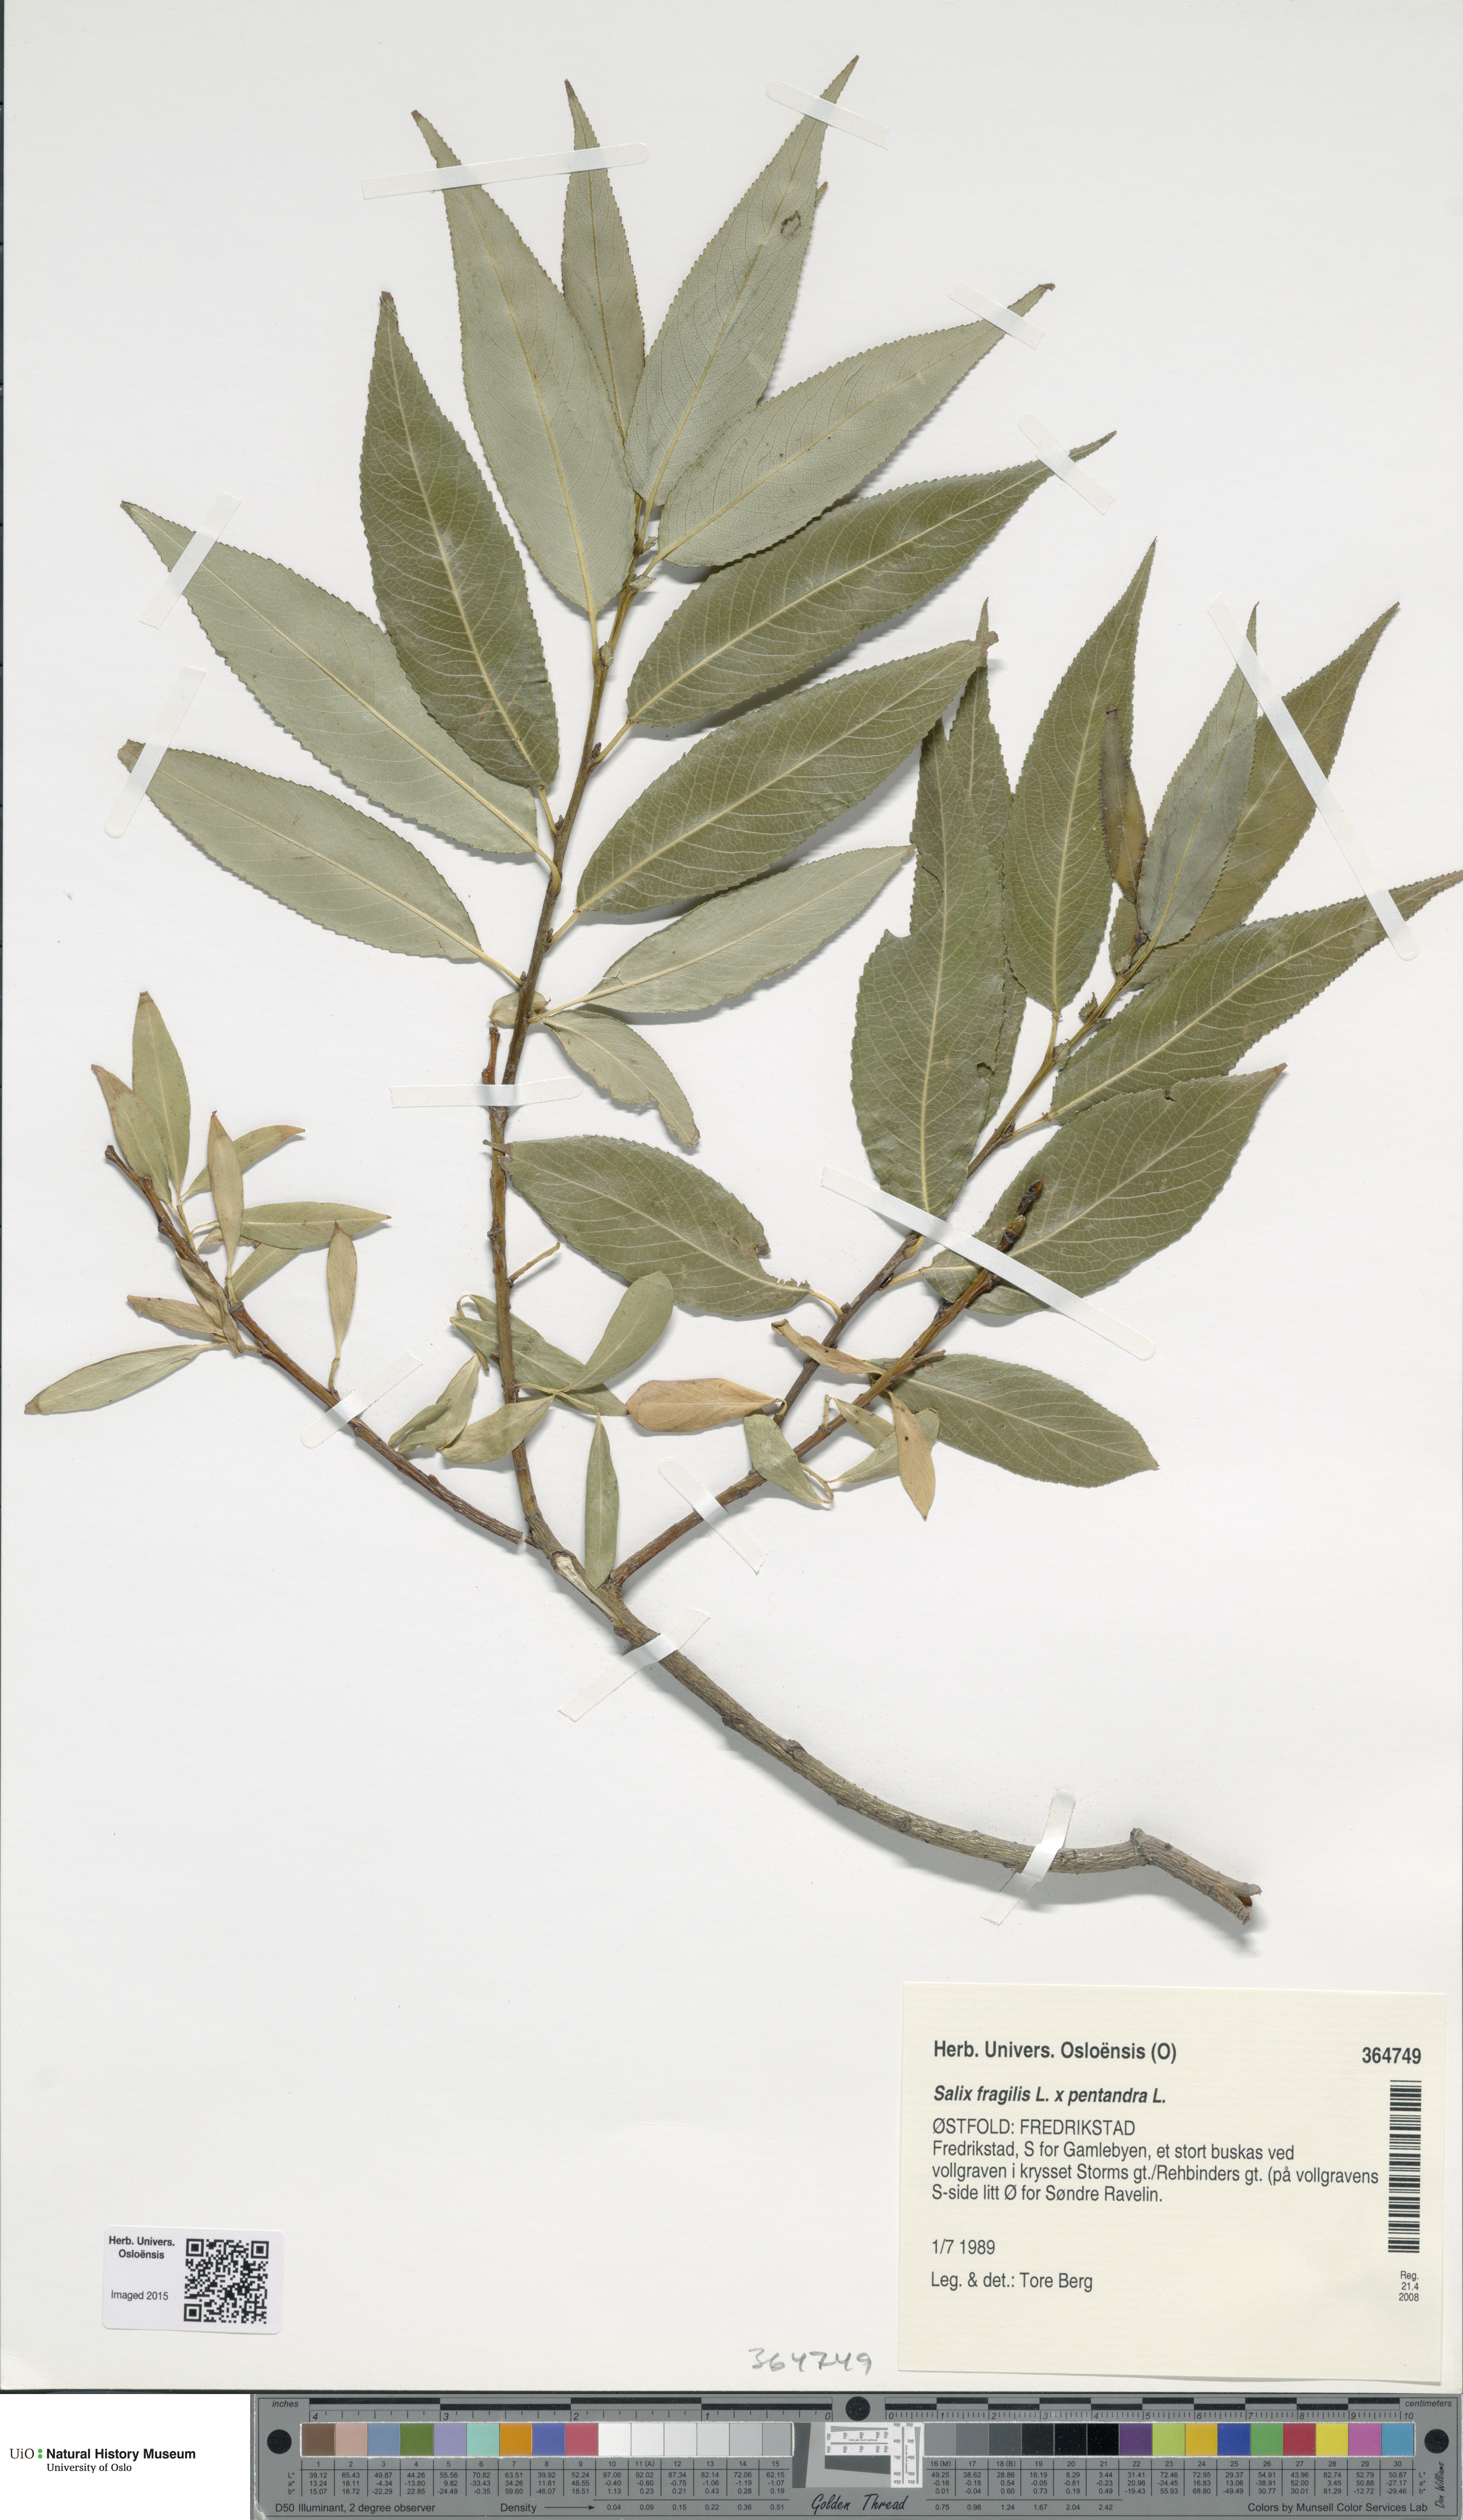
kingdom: Plantae
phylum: Tracheophyta
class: Magnoliopsida
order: Malpighiales
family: Salicaceae
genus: Salix
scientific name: Salix
